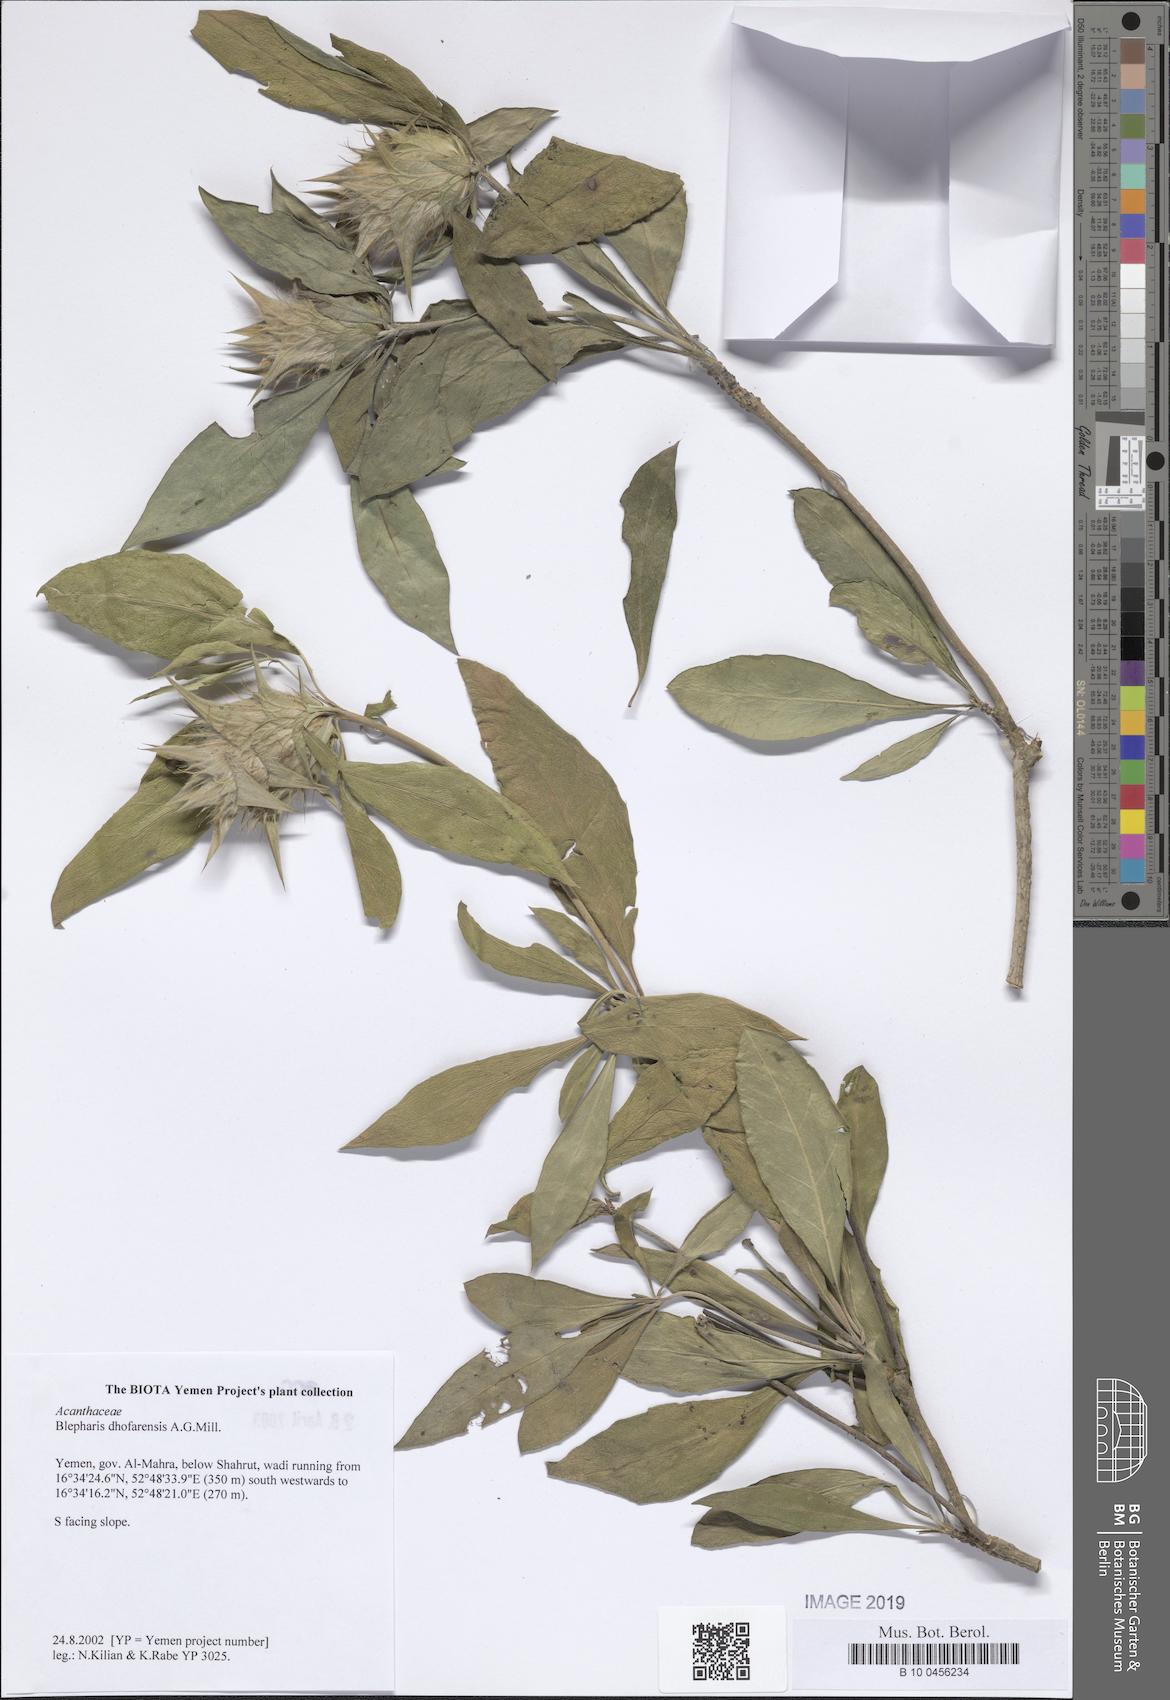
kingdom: Plantae
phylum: Tracheophyta
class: Magnoliopsida
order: Lamiales
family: Acanthaceae
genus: Blepharis
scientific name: Blepharis dhofarensis
